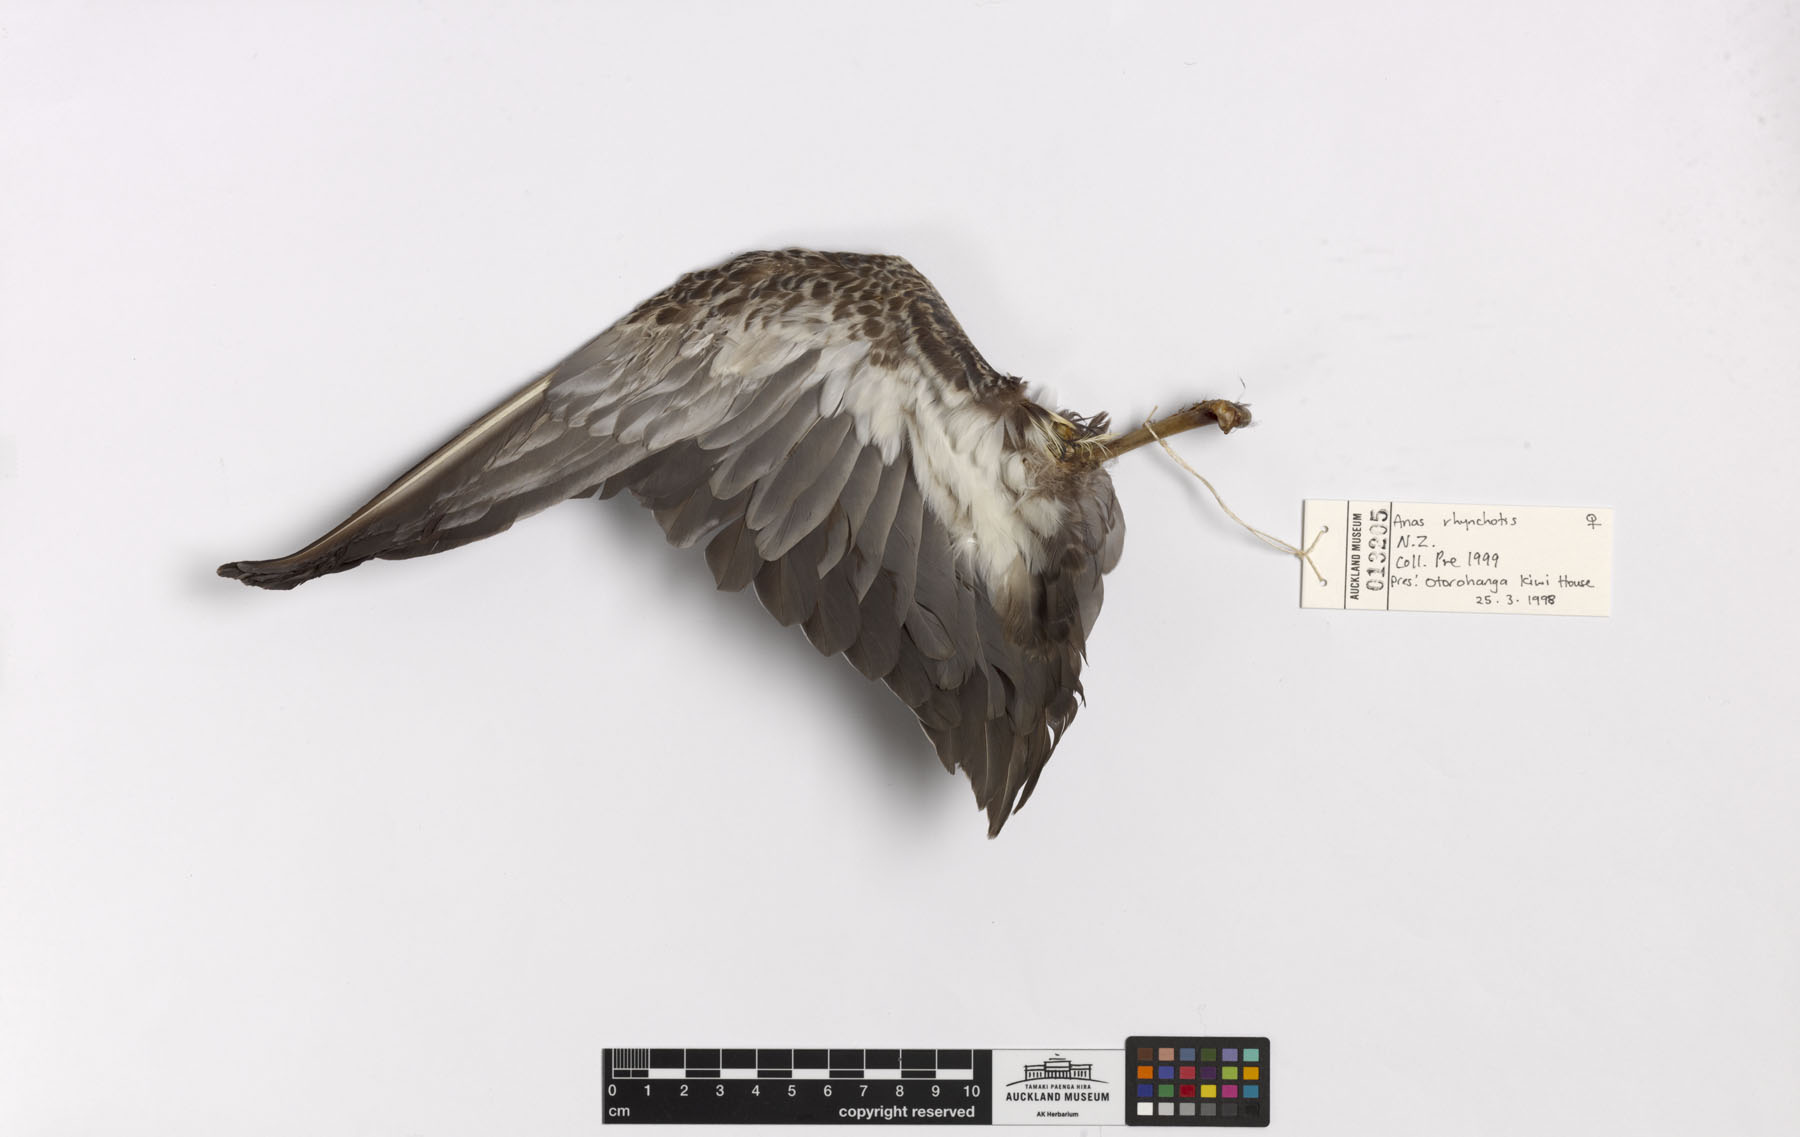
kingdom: Animalia
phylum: Chordata
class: Aves
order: Anseriformes
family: Anatidae
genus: Spatula
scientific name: Spatula rhynchotis
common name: Australian shoveler
